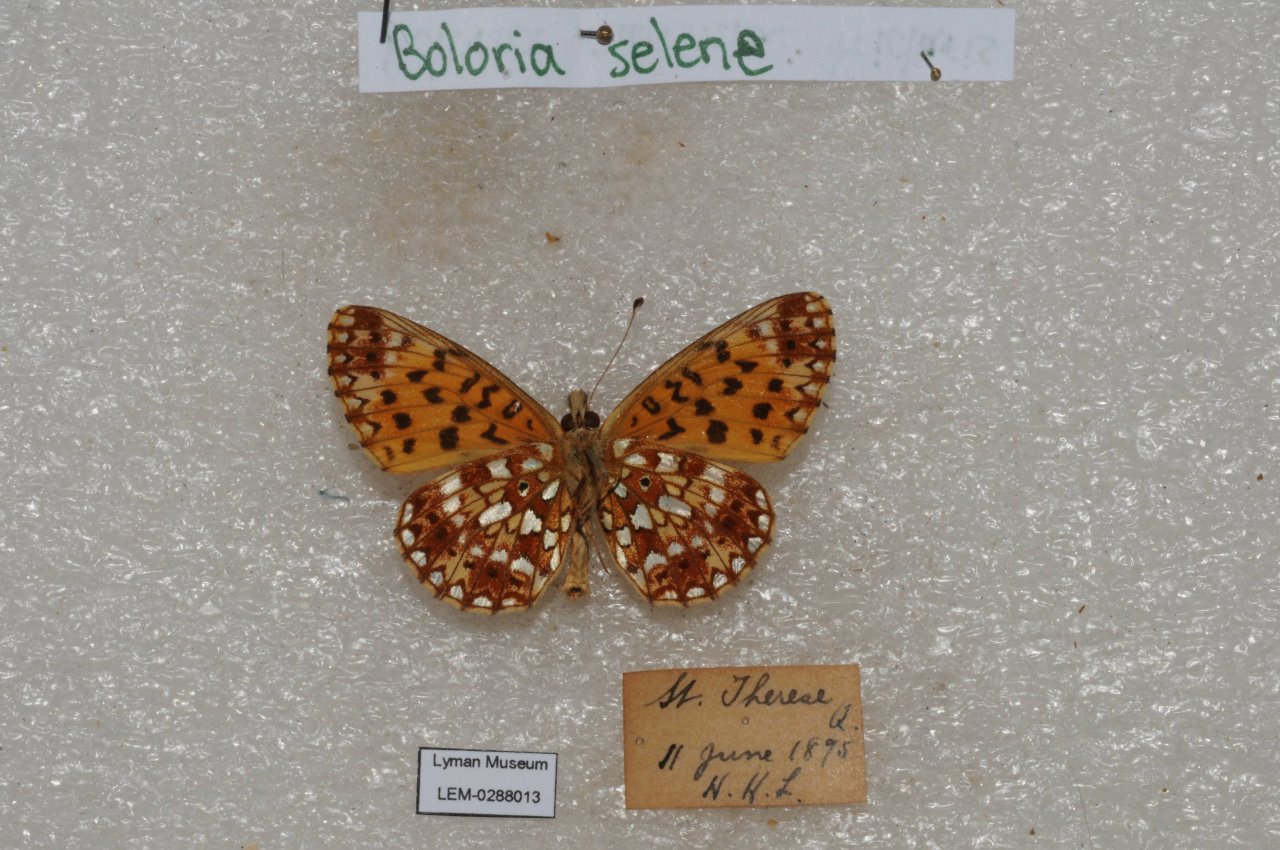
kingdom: Animalia
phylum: Arthropoda
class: Insecta
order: Lepidoptera
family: Nymphalidae
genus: Boloria
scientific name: Boloria selene
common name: Silver-bordered Fritillary
